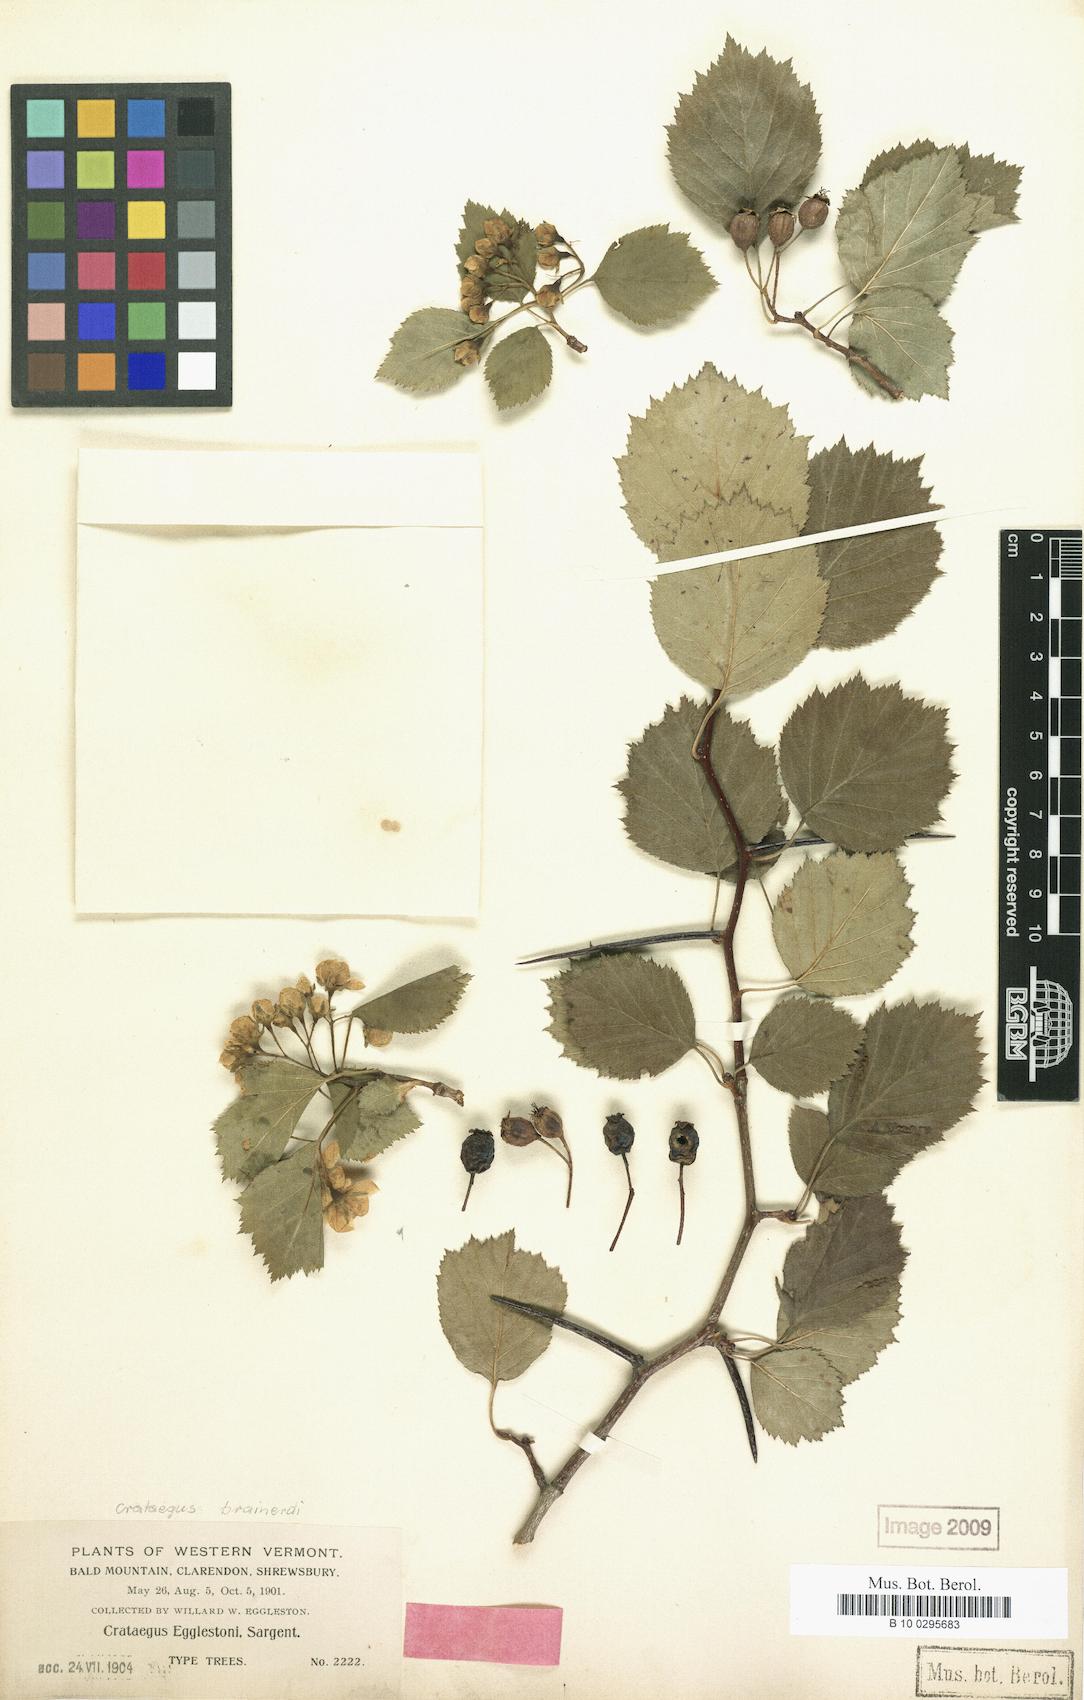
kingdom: Plantae
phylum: Tracheophyta
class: Magnoliopsida
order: Rosales
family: Rosaceae
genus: Crataegus
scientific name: Crataegus scabrida
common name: Rough hawthorn
